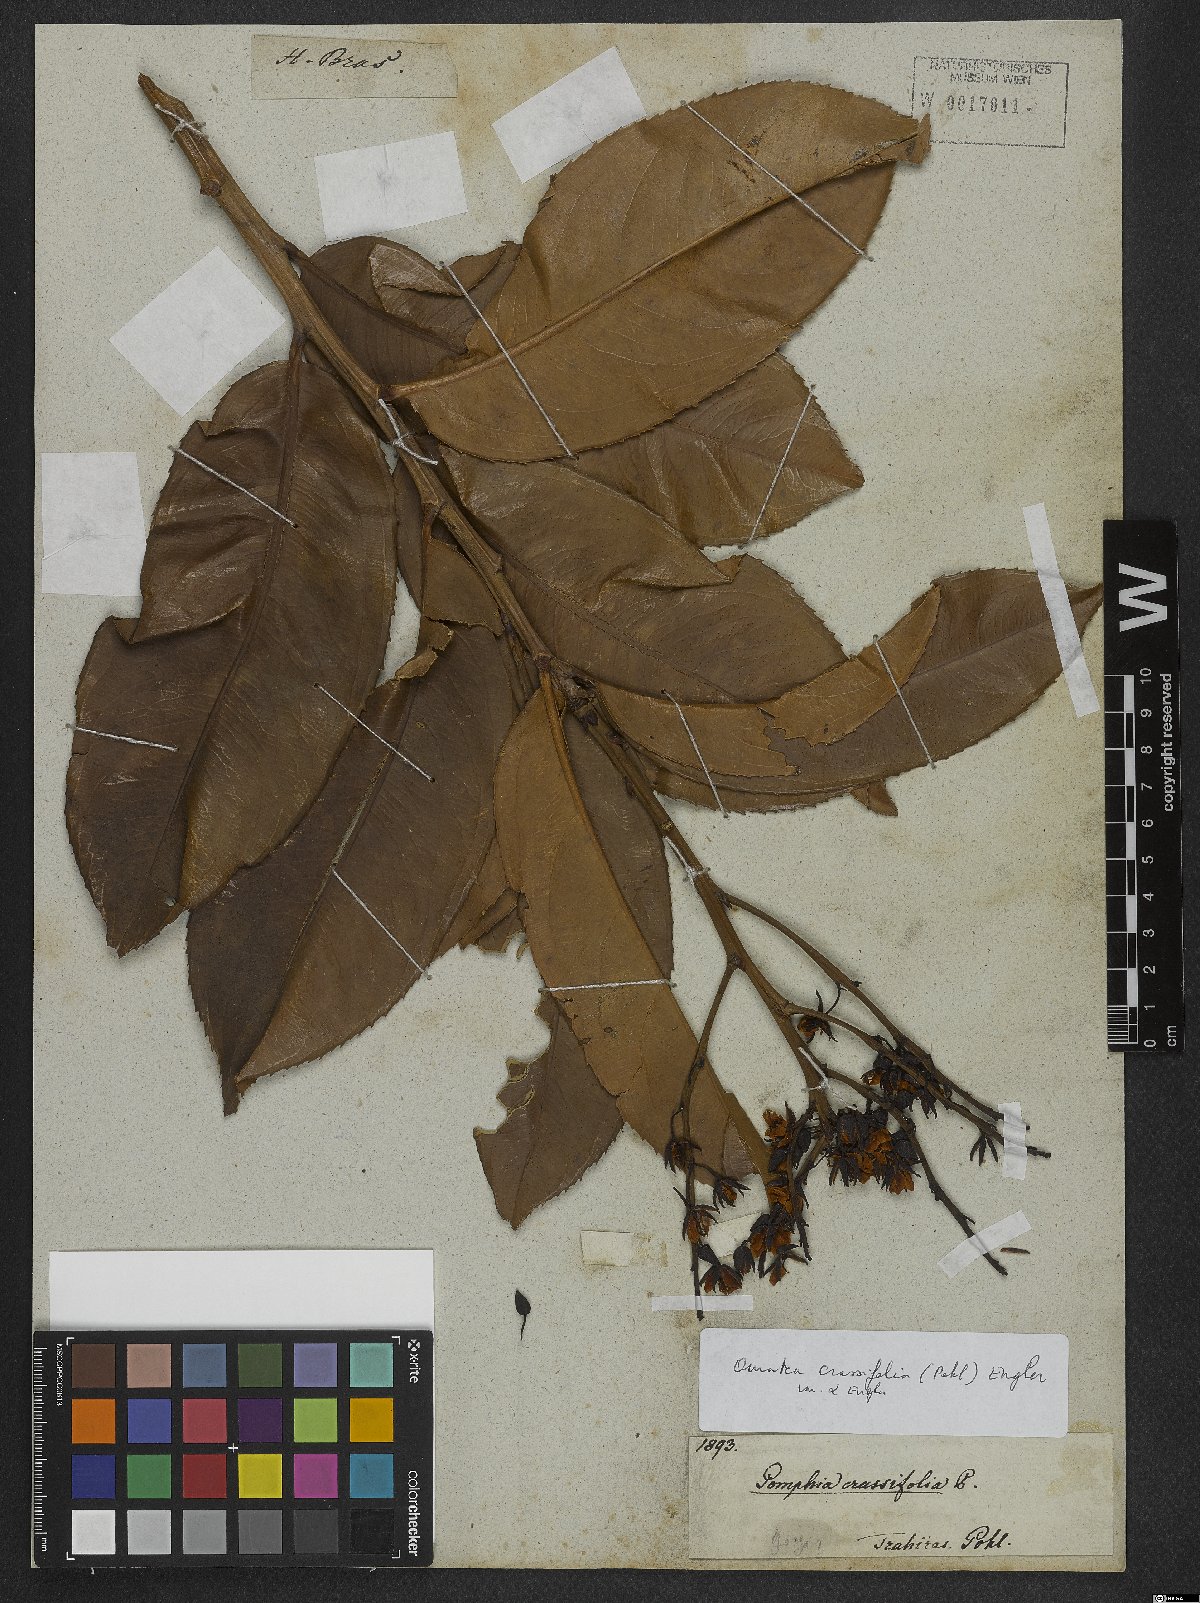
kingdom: Plantae
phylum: Tracheophyta
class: Magnoliopsida
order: Malpighiales
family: Ochnaceae
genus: Ouratea
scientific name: Ouratea crassifolia
